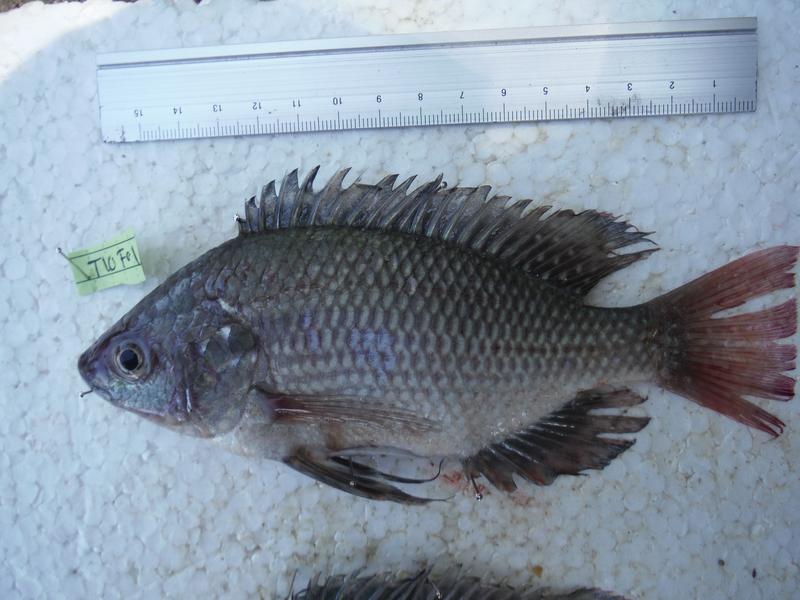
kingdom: Animalia
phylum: Chordata
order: Perciformes
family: Cichlidae
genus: Oreochromis
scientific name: Oreochromis esculentus
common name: Carp
